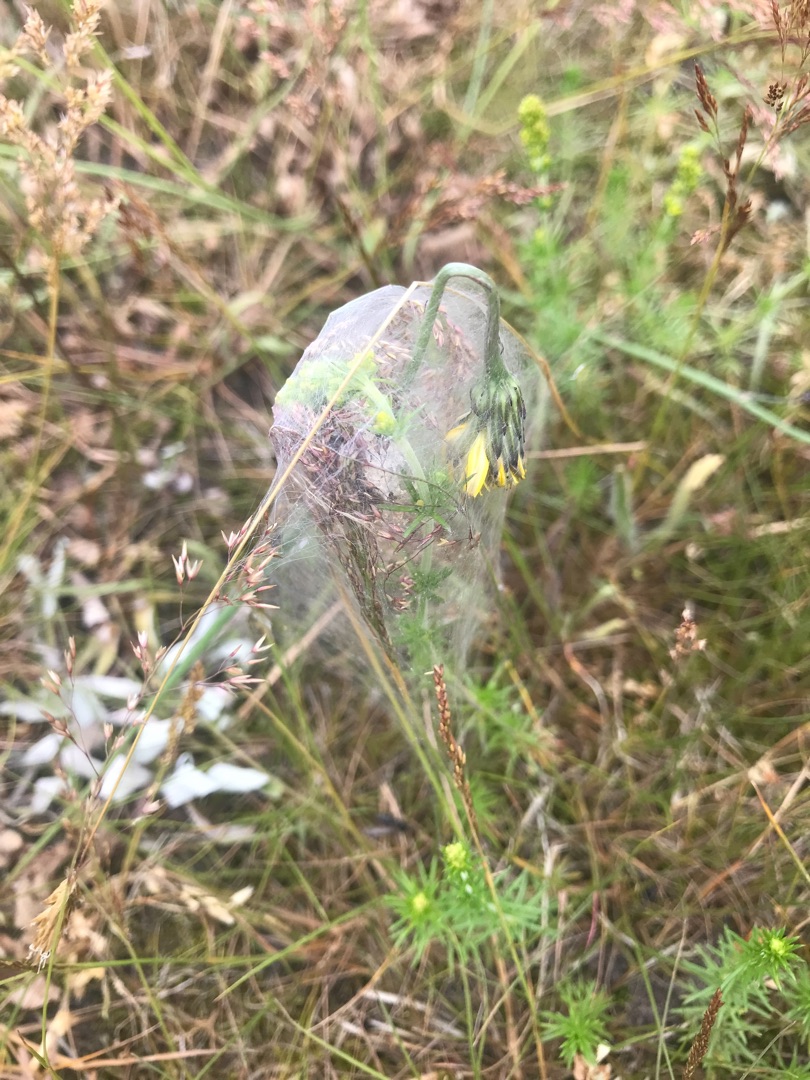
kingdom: Animalia
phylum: Arthropoda
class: Arachnida
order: Araneae
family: Pisauridae
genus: Pisaura
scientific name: Pisaura mirabilis
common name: Almindelig rovedderkop
